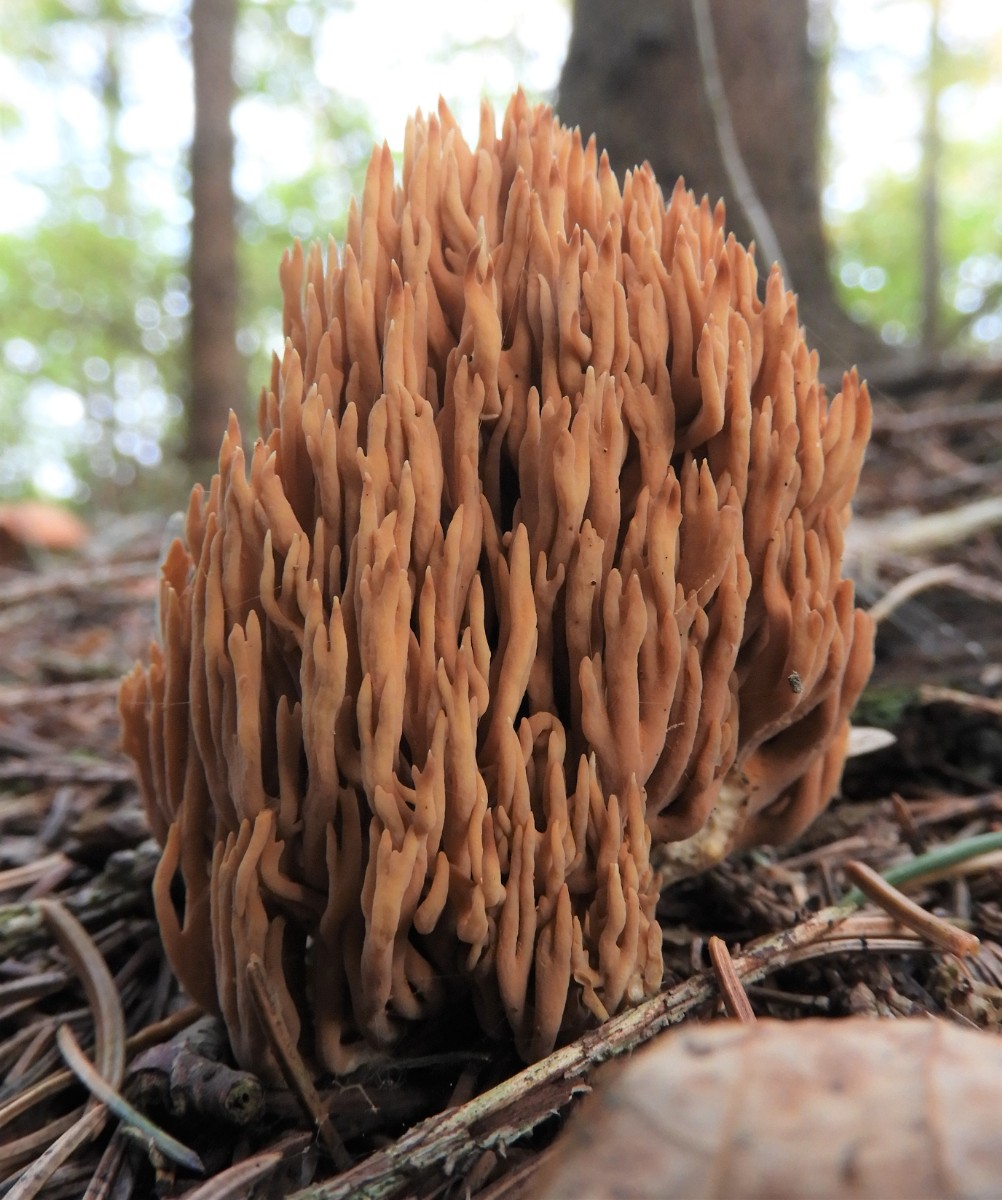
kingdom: Fungi
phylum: Basidiomycota
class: Agaricomycetes
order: Gomphales
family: Gomphaceae
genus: Phaeoclavulina
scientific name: Phaeoclavulina eumorpha
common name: gran-koralsvamp
